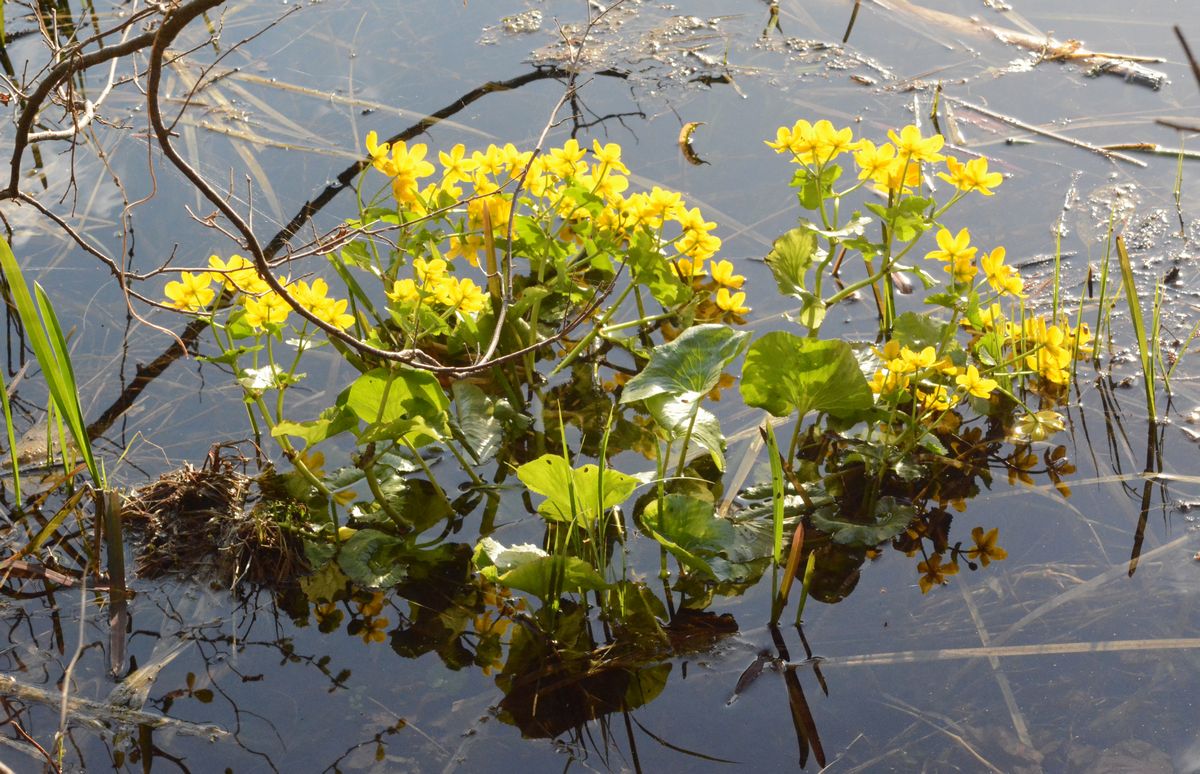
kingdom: Plantae
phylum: Tracheophyta
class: Magnoliopsida
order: Ranunculales
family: Ranunculaceae
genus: Caltha
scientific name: Caltha palustris
